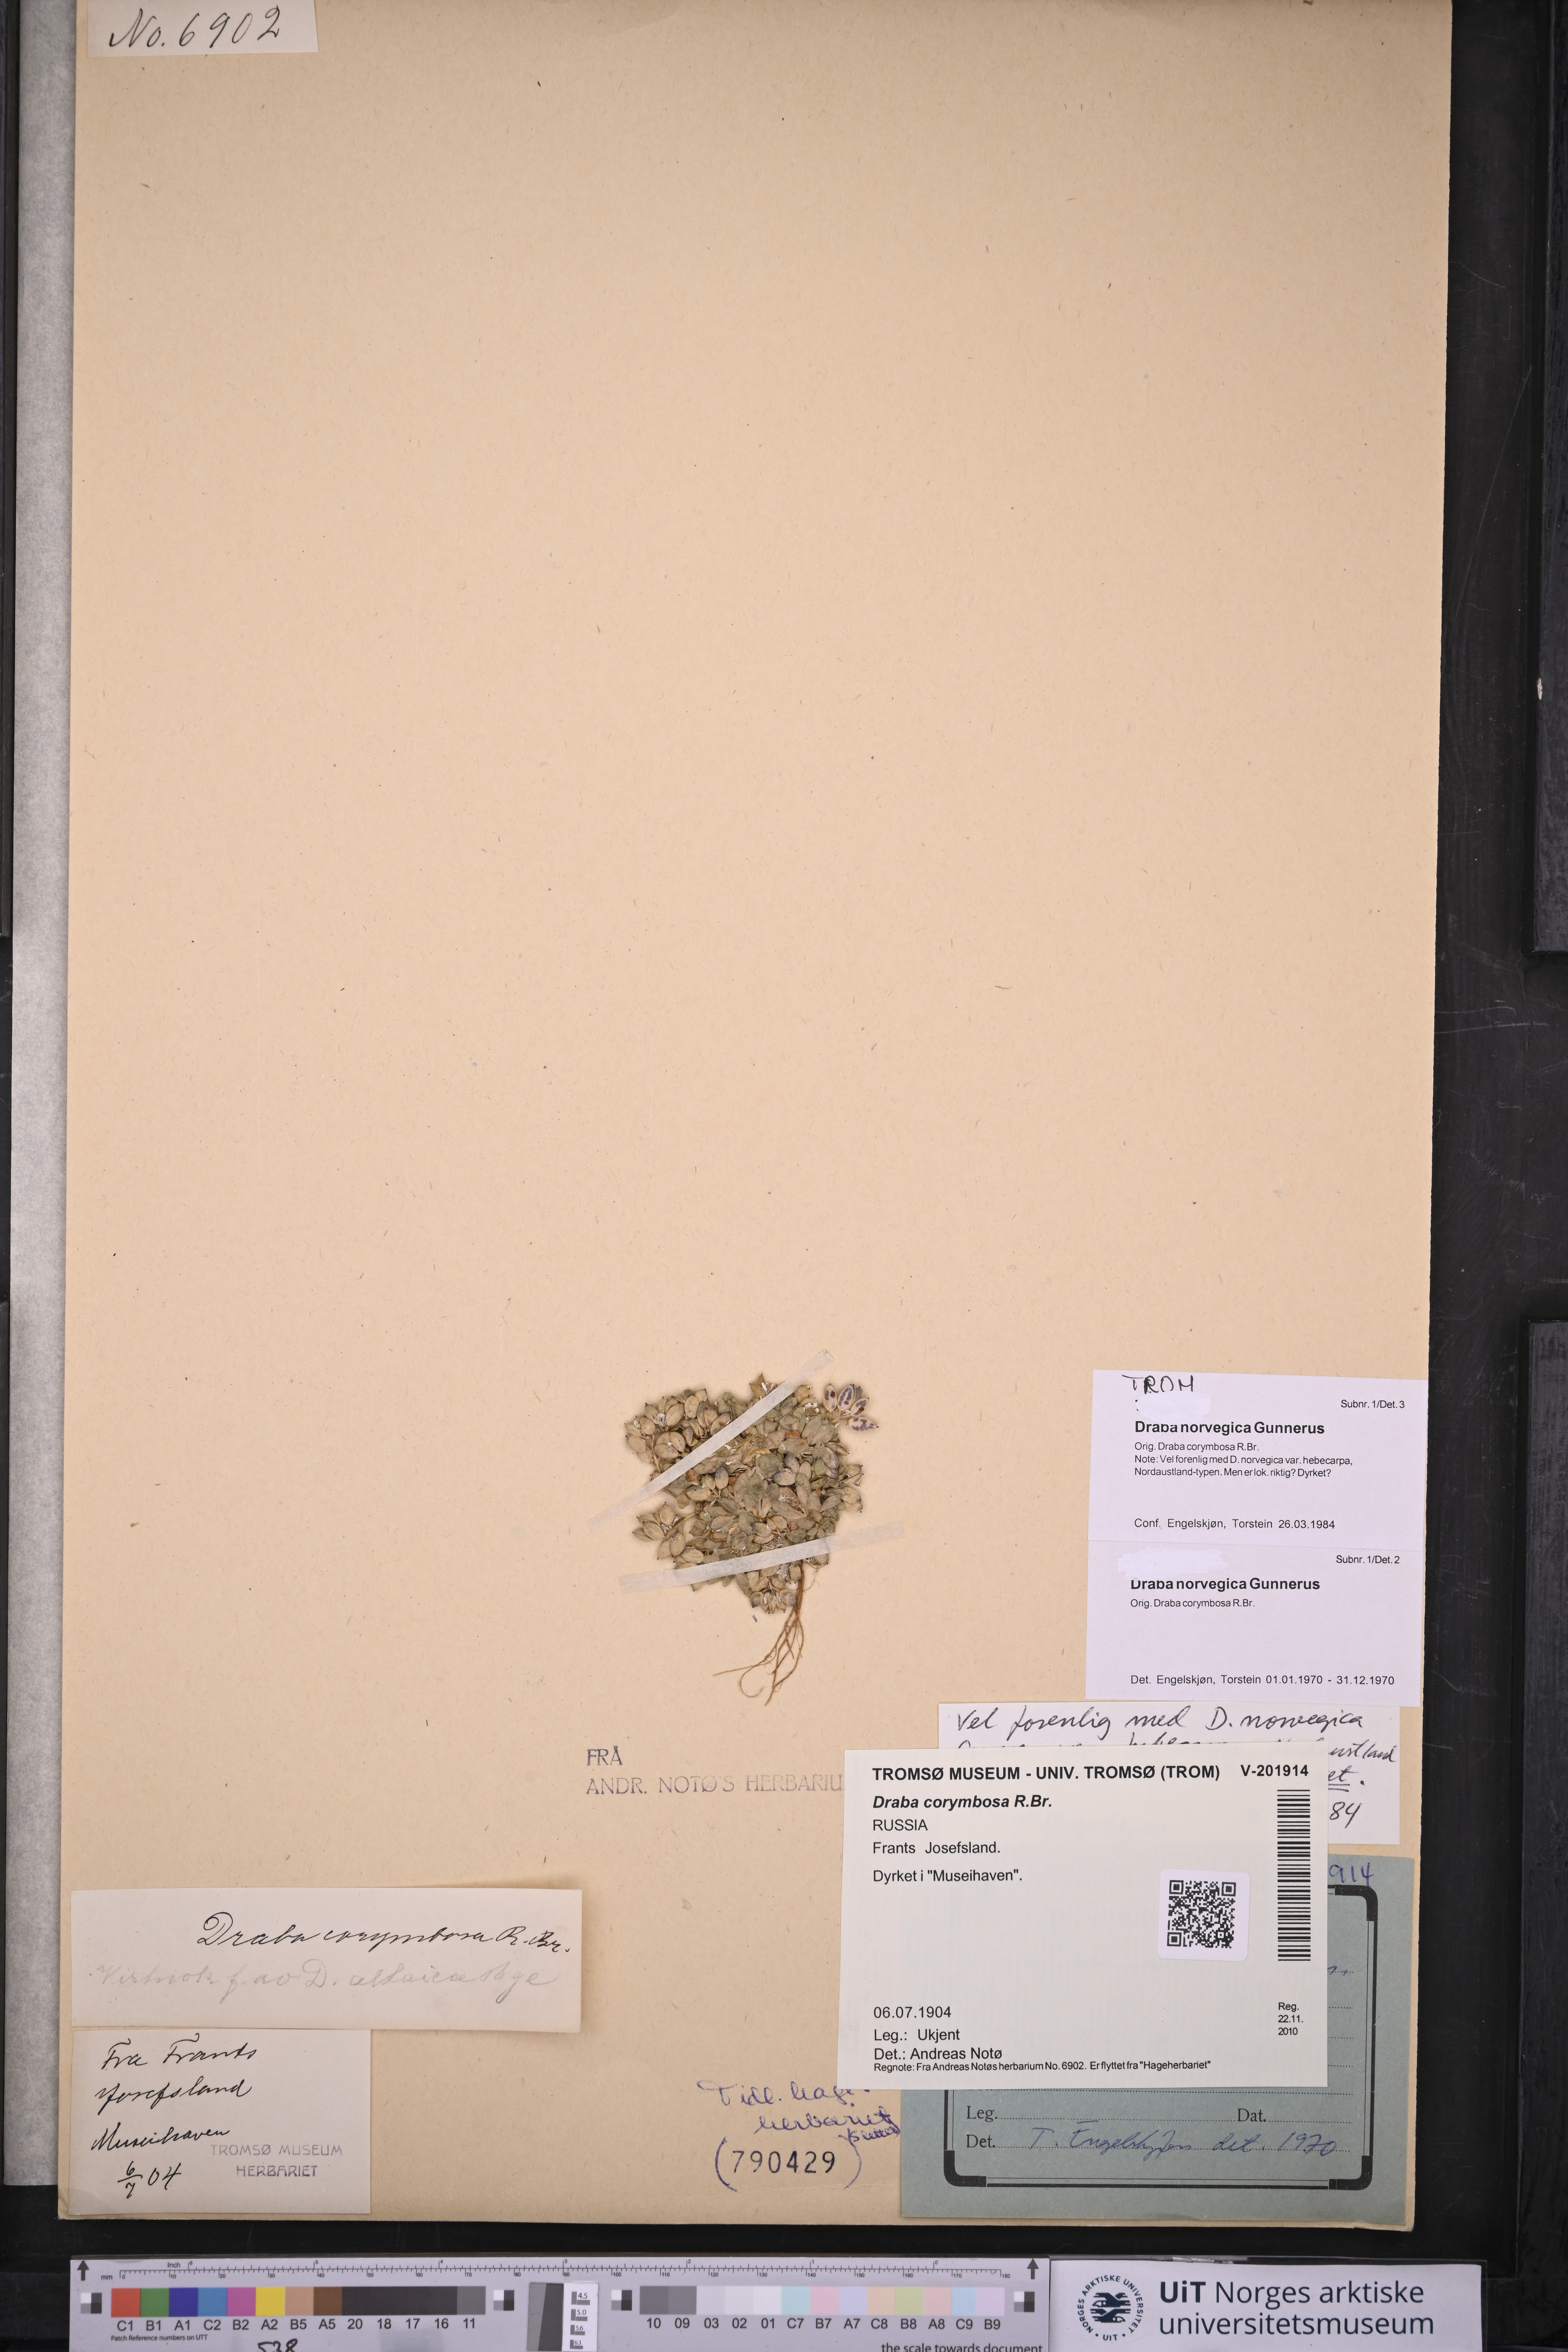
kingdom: Plantae
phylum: Tracheophyta
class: Magnoliopsida
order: Brassicales
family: Brassicaceae
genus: Draba
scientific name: Draba norvegica
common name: Rock whitlowgrass
